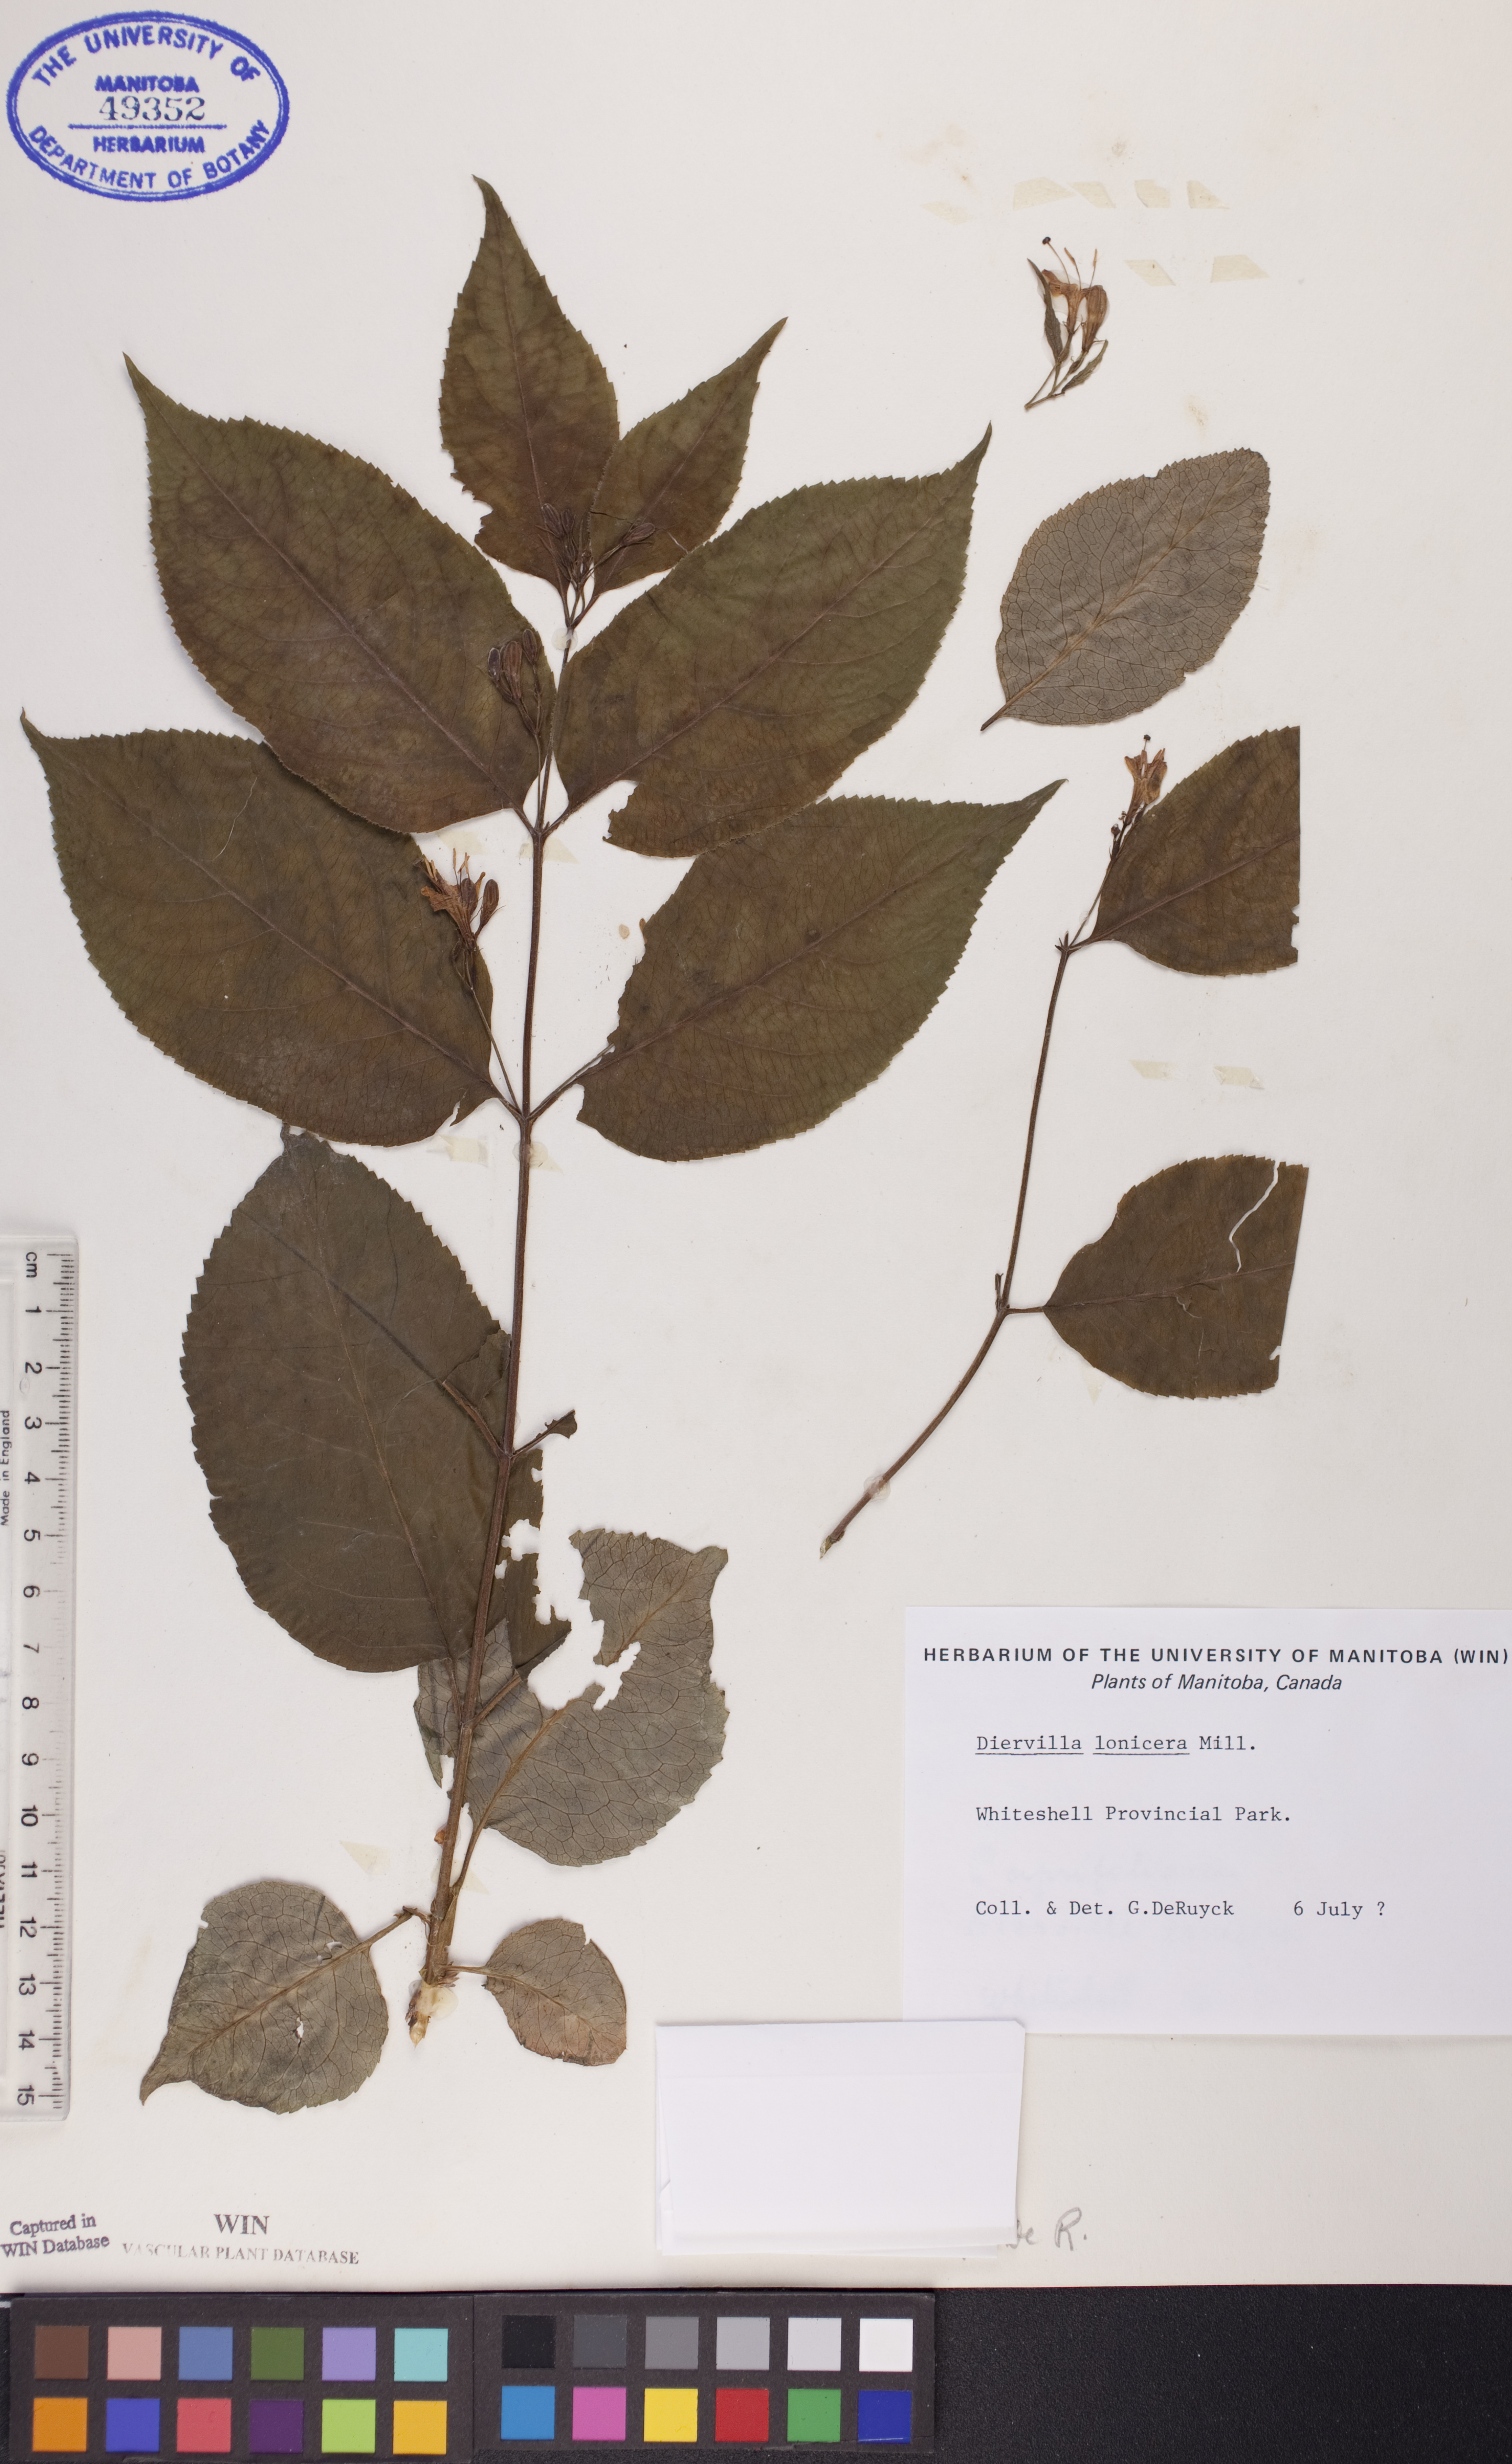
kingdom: Plantae
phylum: Tracheophyta
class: Magnoliopsida
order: Dipsacales
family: Caprifoliaceae
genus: Diervilla
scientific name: Diervilla lonicera
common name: Bush-honeysuckle
